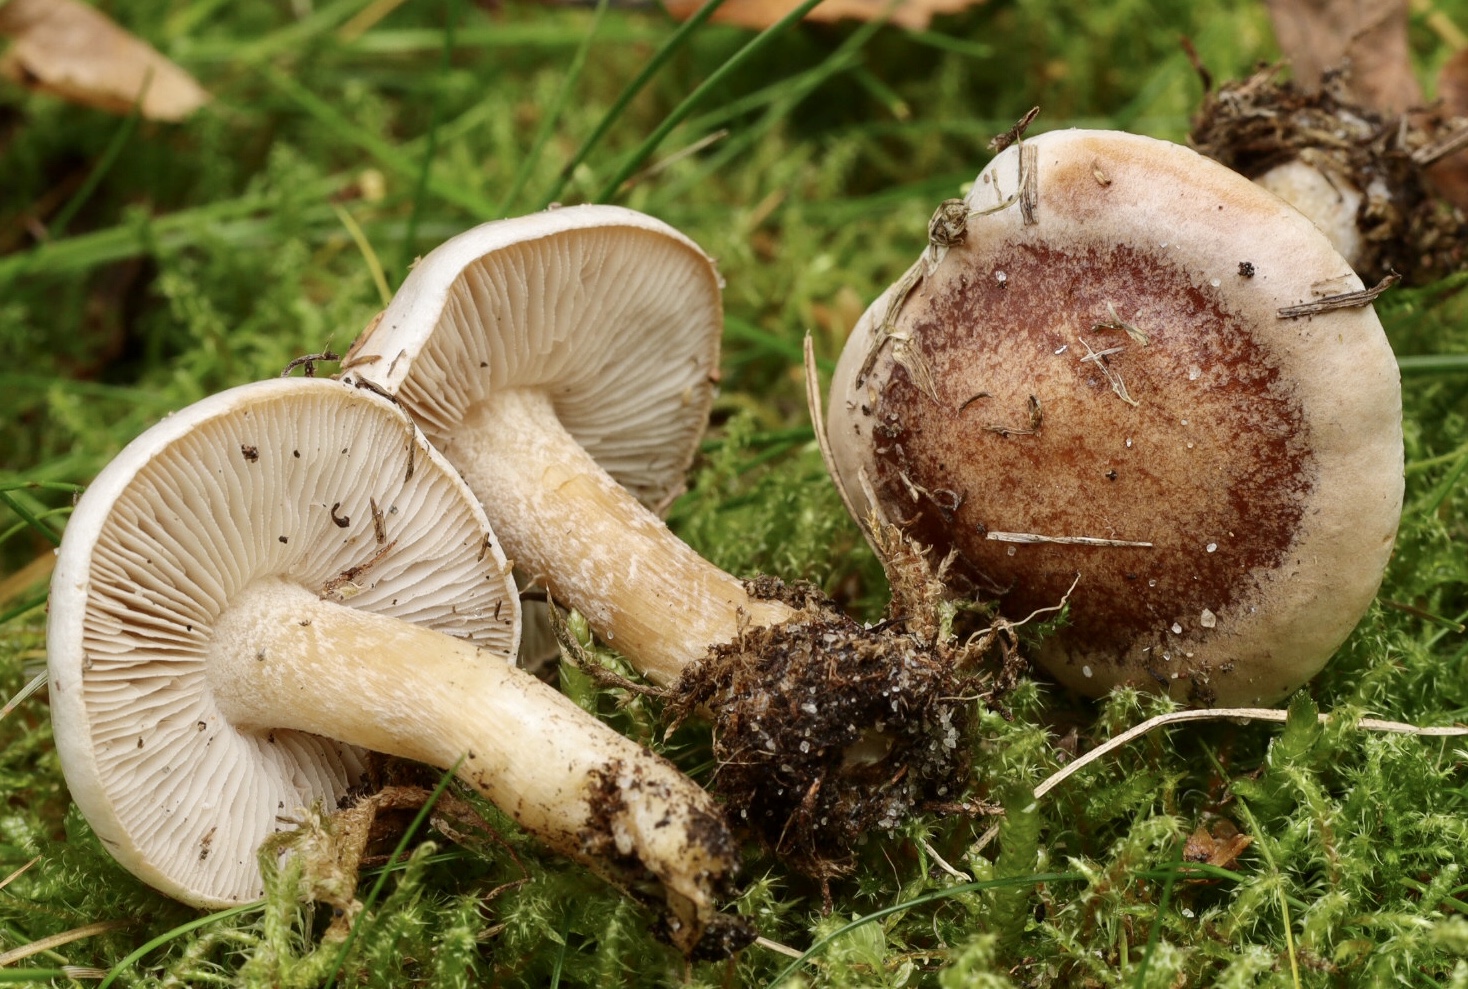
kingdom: Fungi
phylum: Basidiomycota
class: Agaricomycetes
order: Agaricales
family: Hymenogastraceae
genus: Hebeloma
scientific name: Hebeloma
